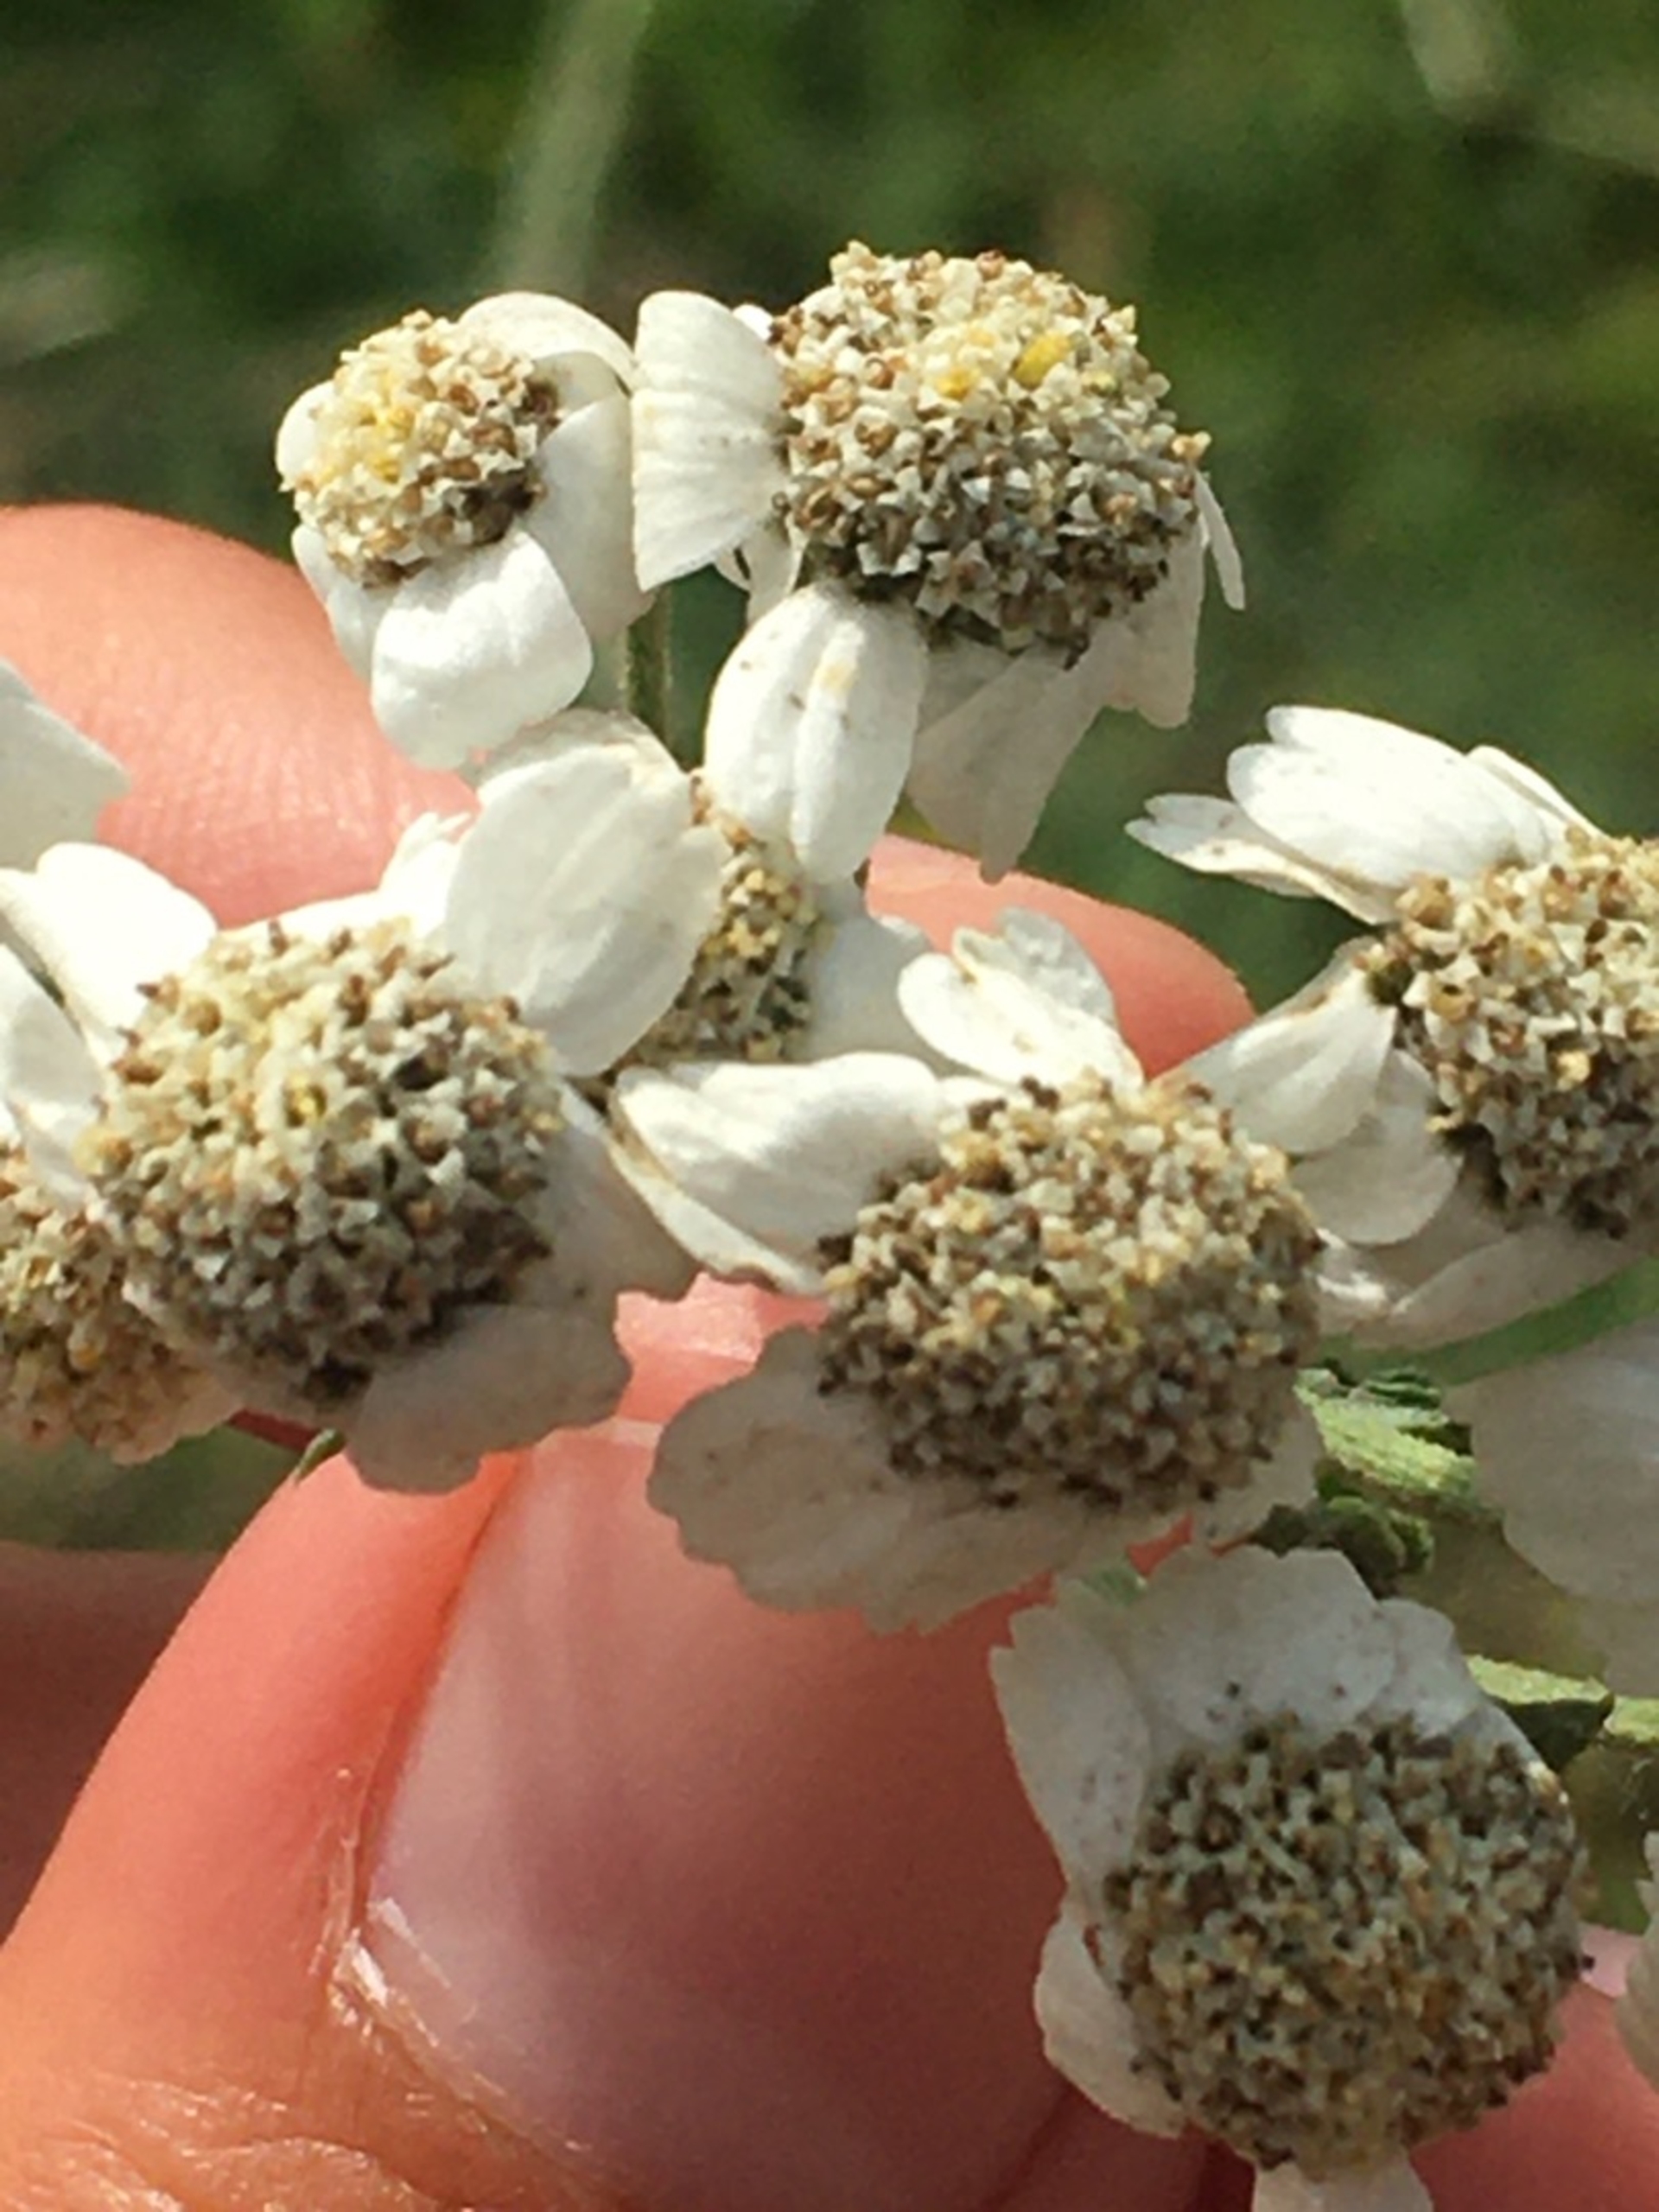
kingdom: Plantae
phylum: Tracheophyta
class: Magnoliopsida
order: Asterales
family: Asteraceae
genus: Achillea
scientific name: Achillea ptarmica
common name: Nyse-røllike
